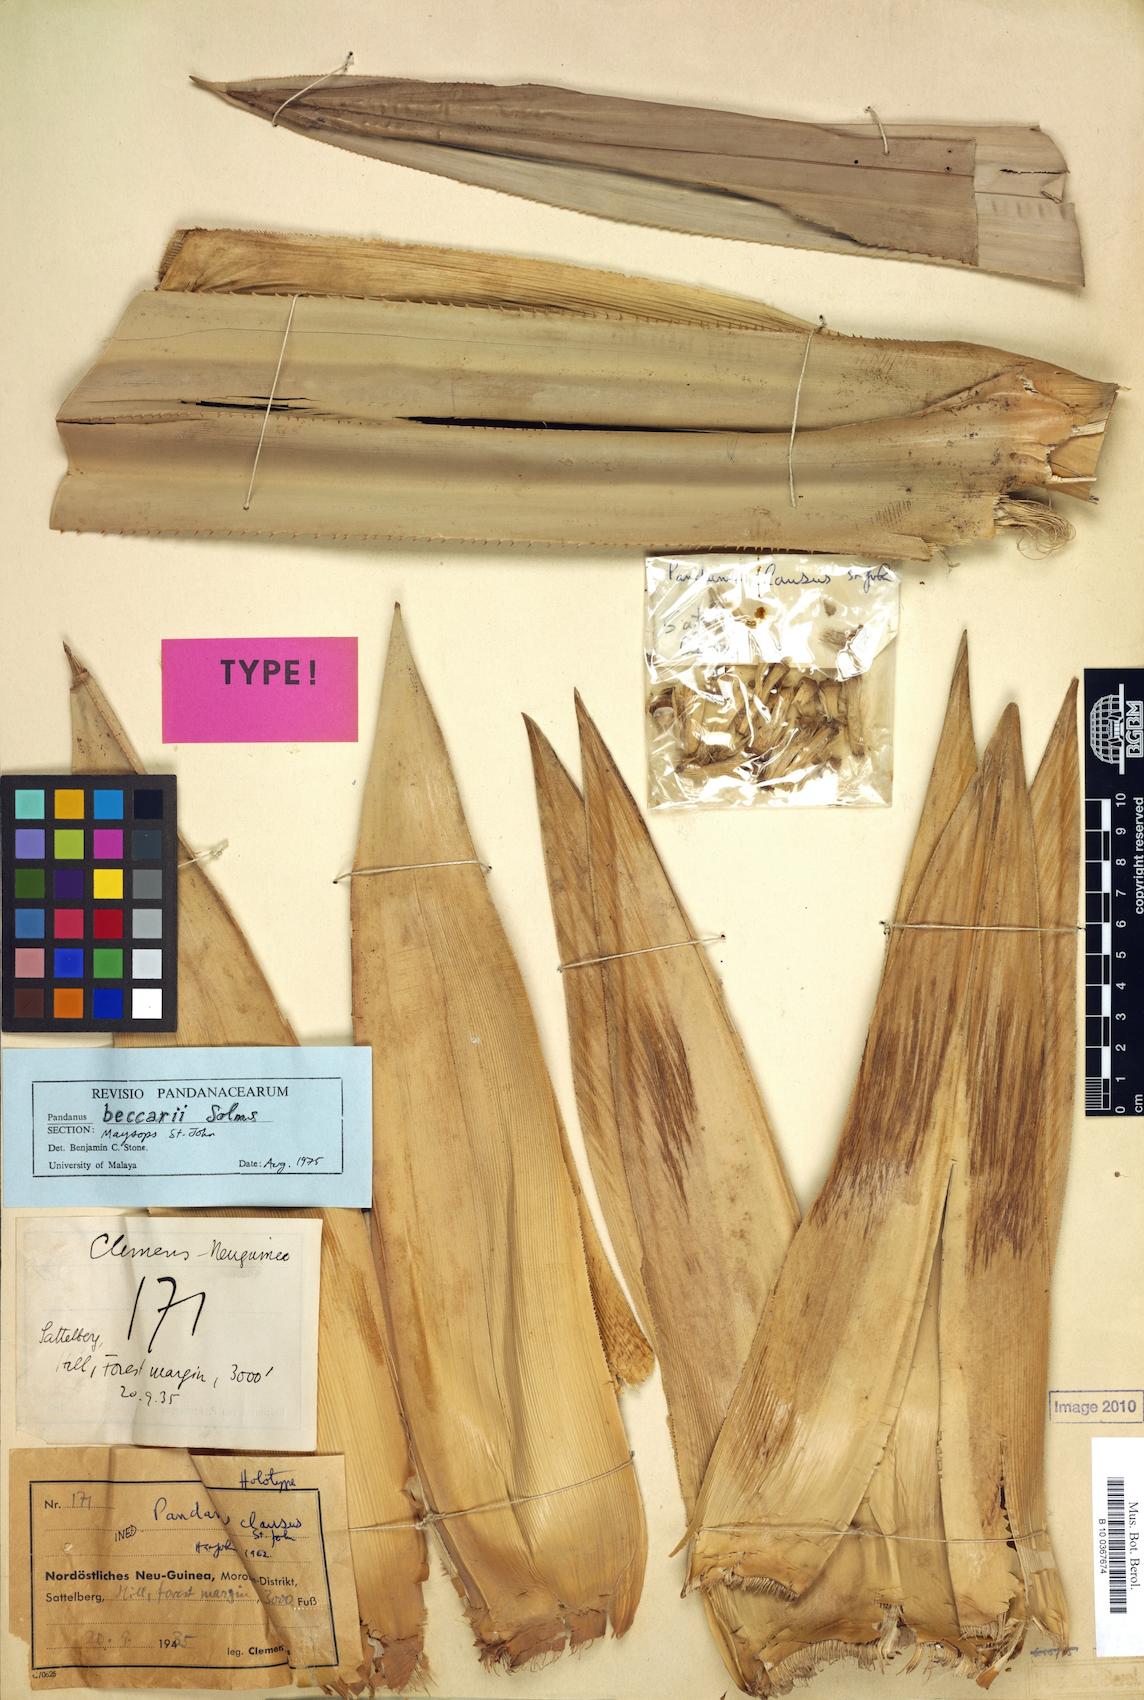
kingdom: Plantae
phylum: Tracheophyta
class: Liliopsida
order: Pandanales
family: Pandanaceae
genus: Pandanus
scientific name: Pandanus beccarii
